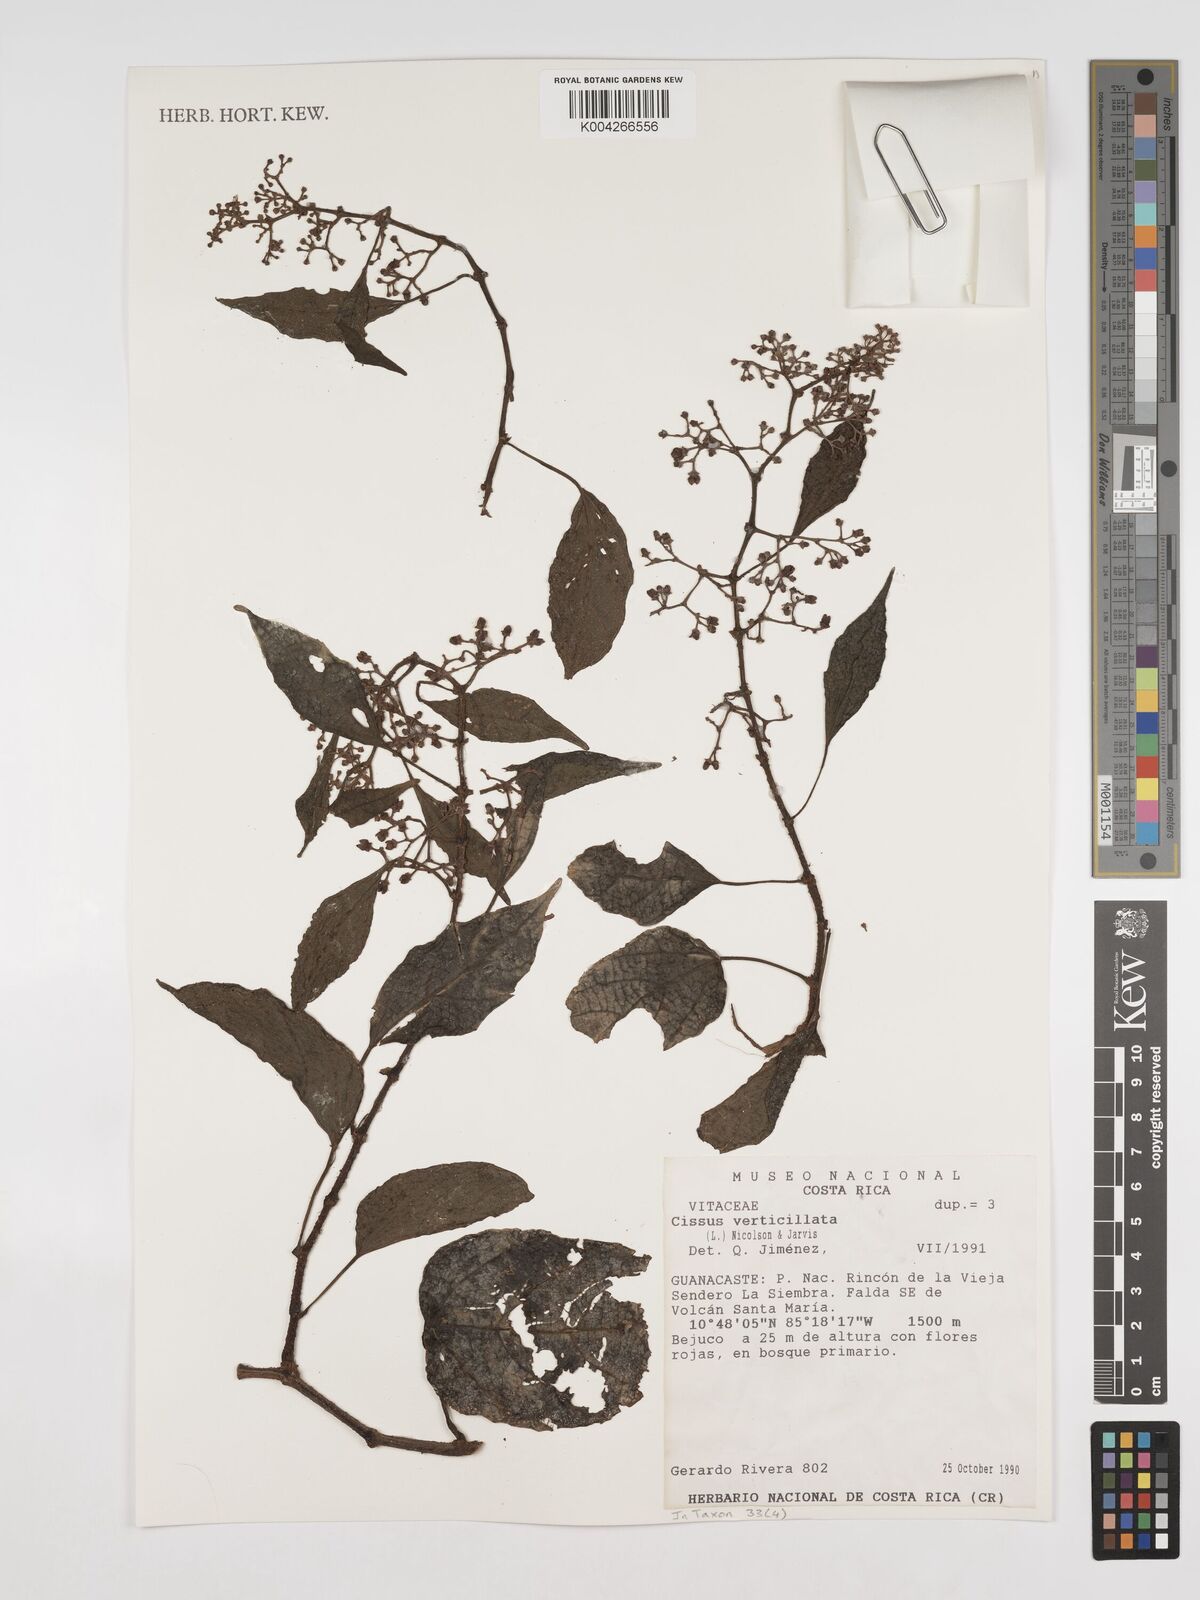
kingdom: Plantae
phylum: Tracheophyta
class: Magnoliopsida
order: Vitales
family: Vitaceae
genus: Cissus
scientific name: Cissus verticillata
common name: Princess vine
